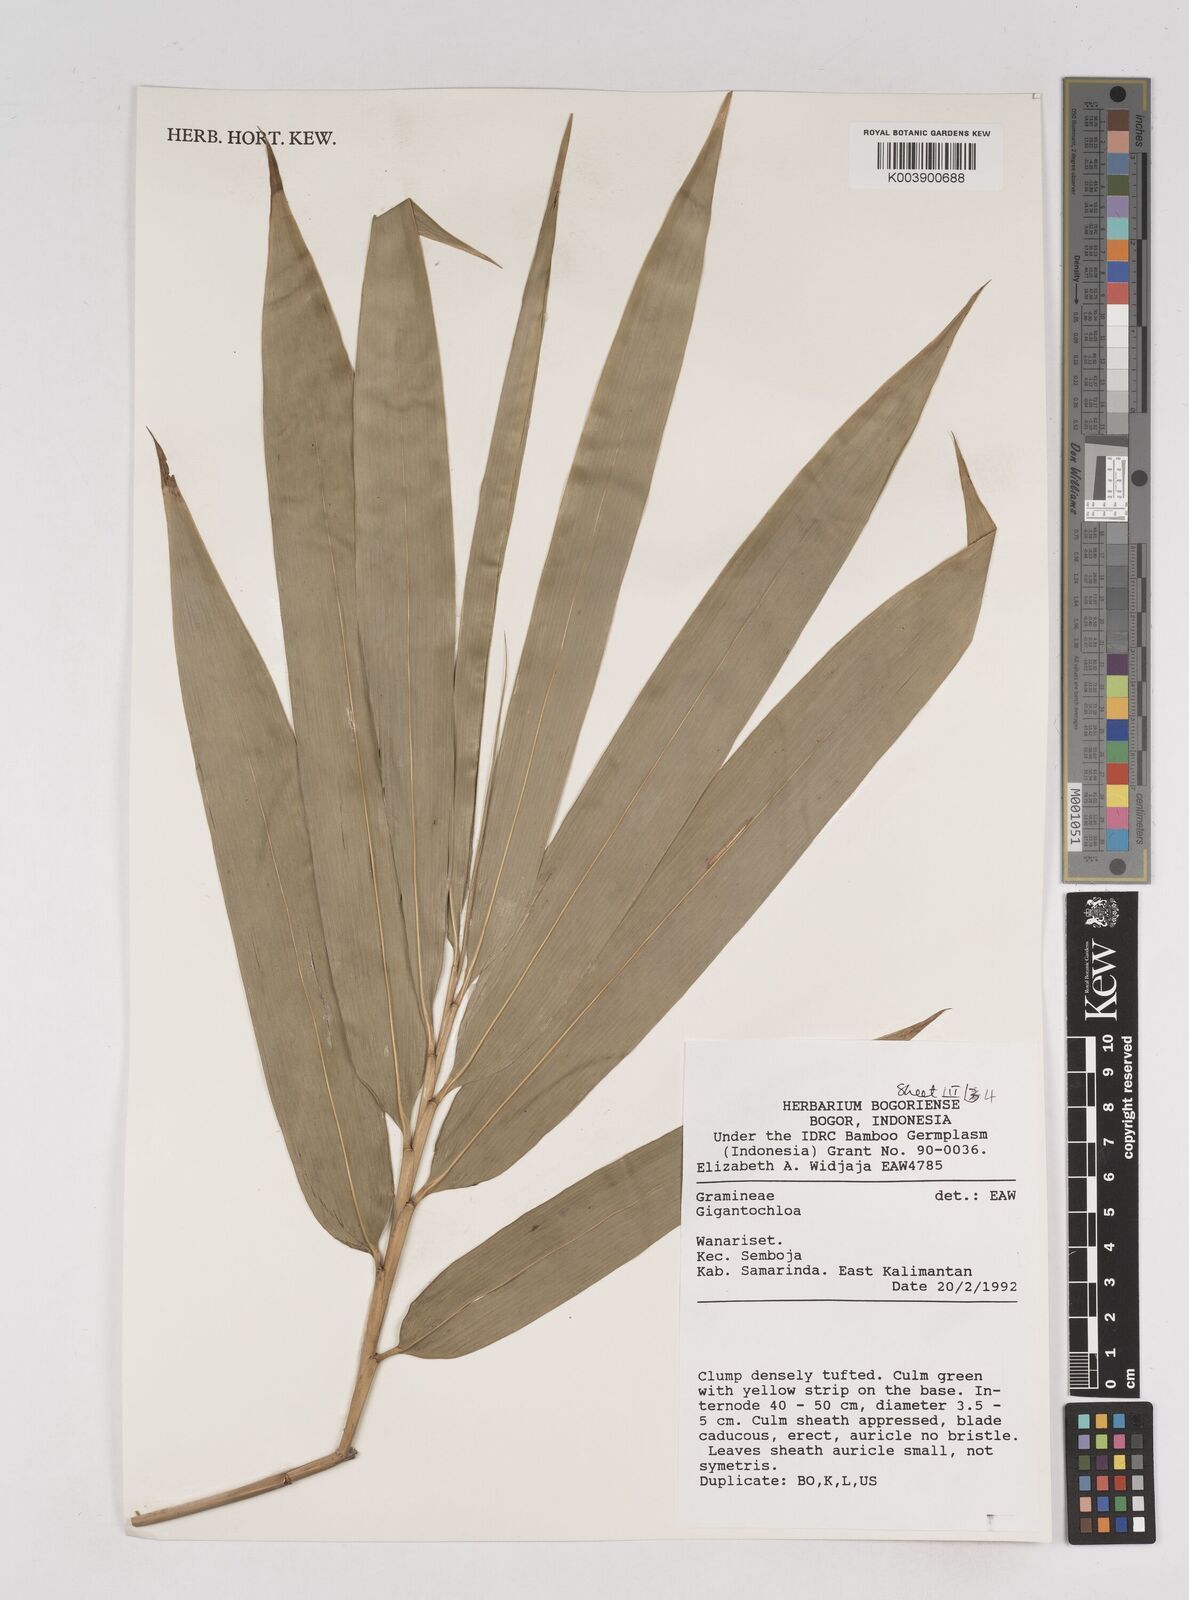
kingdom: Plantae
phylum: Tracheophyta
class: Liliopsida
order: Poales
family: Poaceae
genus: Gigantochloa
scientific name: Gigantochloa
